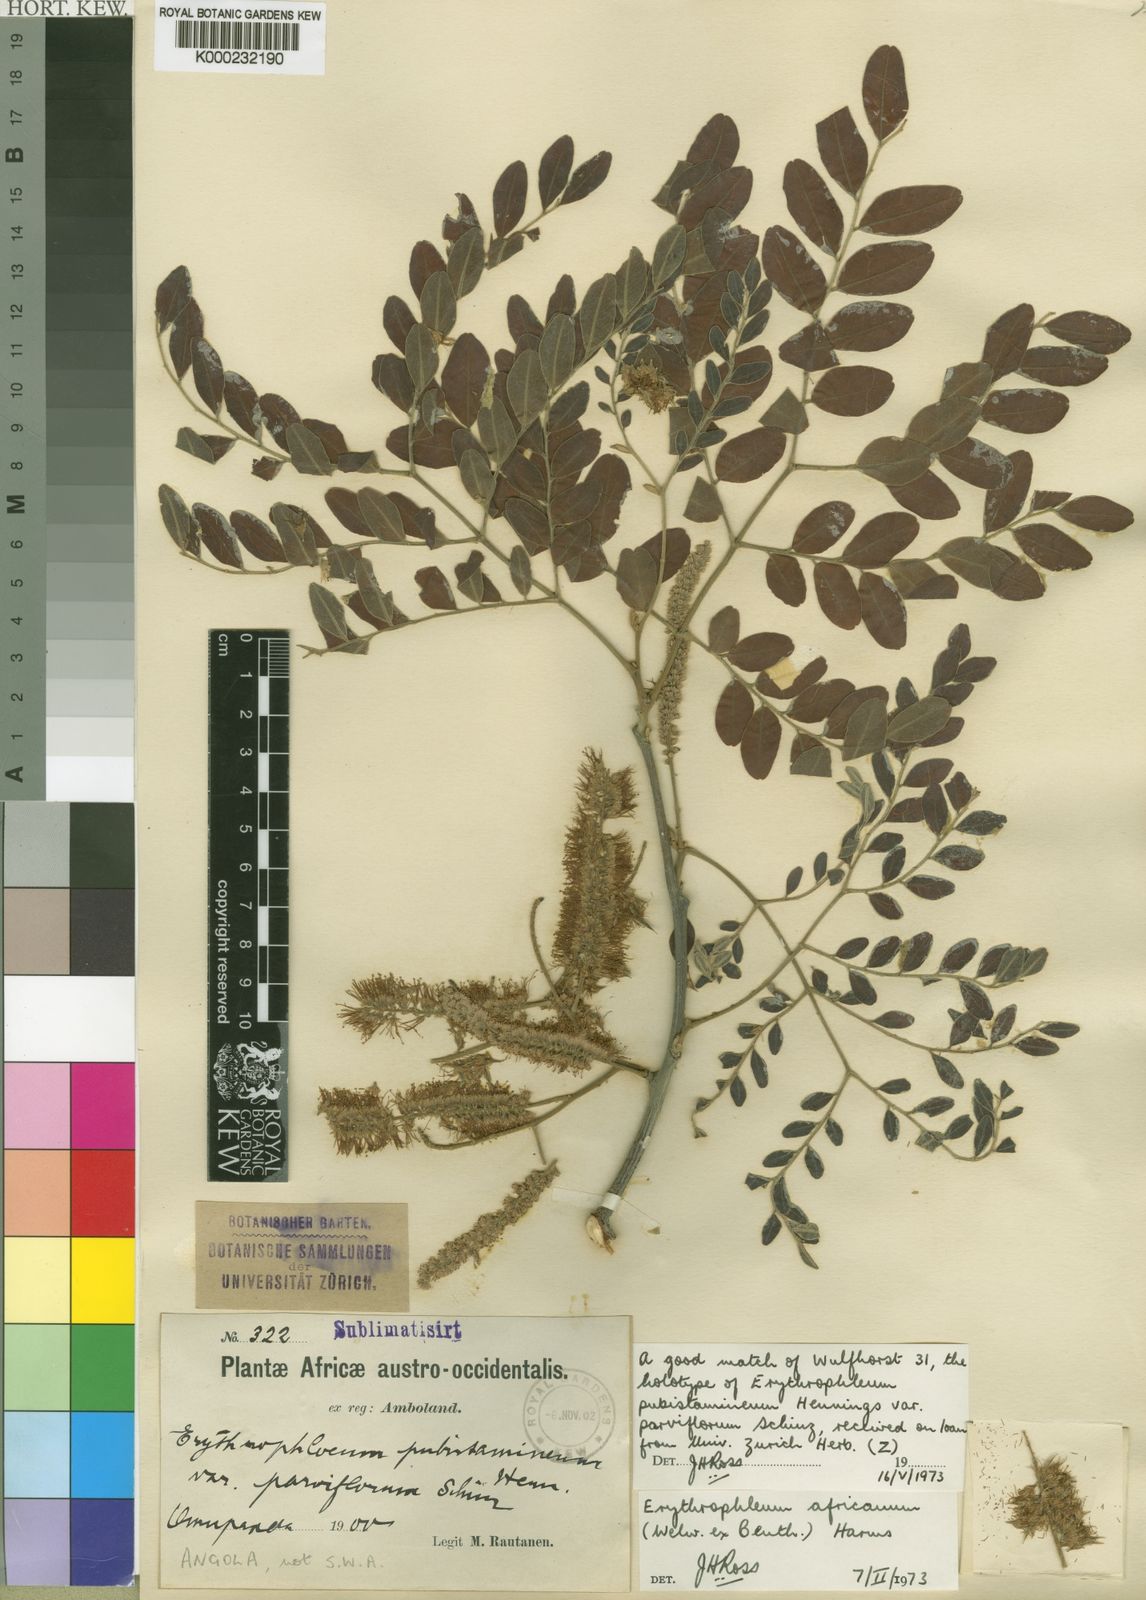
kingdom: Plantae
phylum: Tracheophyta
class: Magnoliopsida
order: Fabales
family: Fabaceae
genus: Erythrophleum
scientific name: Erythrophleum africanum
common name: African blackwood
